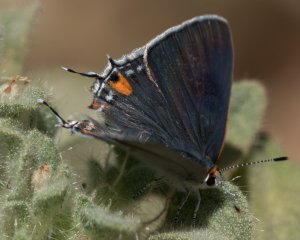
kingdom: Animalia
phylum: Arthropoda
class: Insecta
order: Lepidoptera
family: Lycaenidae
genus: Strymon
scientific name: Strymon melinus
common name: Gray Hairstreak
